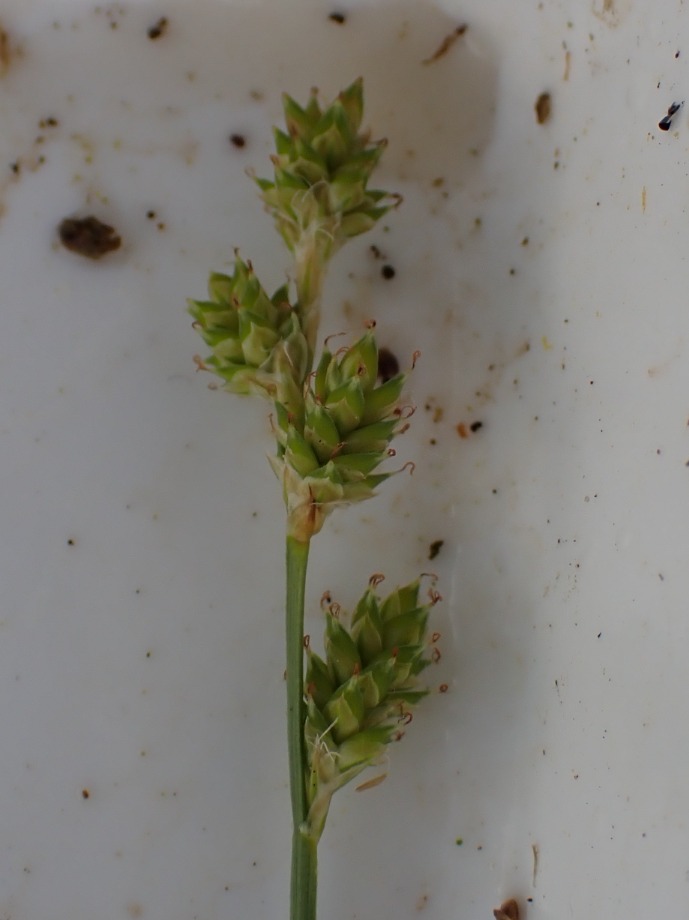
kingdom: Plantae
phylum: Tracheophyta
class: Liliopsida
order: Poales
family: Cyperaceae
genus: Carex
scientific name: Carex canescens
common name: Grå star
